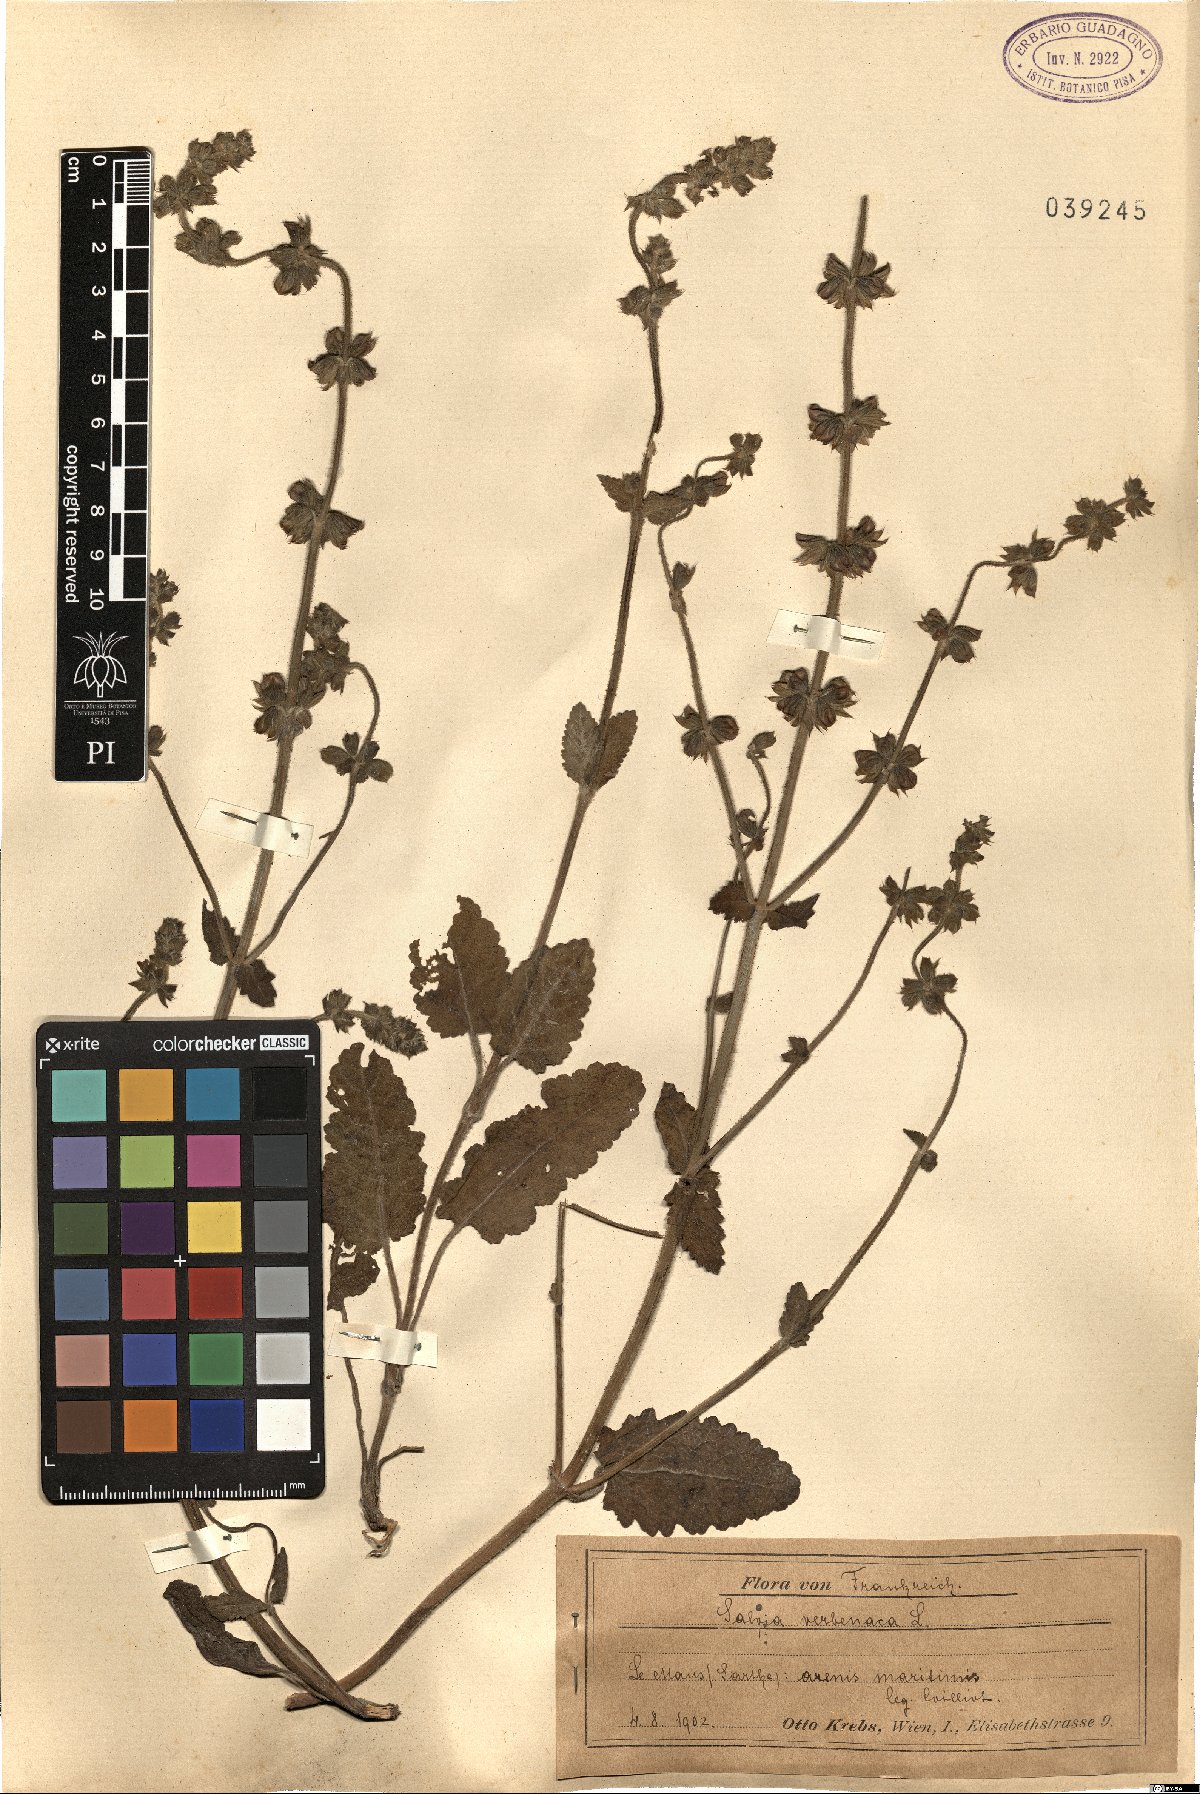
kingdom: Plantae
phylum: Tracheophyta
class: Magnoliopsida
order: Lamiales
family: Lamiaceae
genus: Salvia
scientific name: Salvia verbenaca
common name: Wild clary
